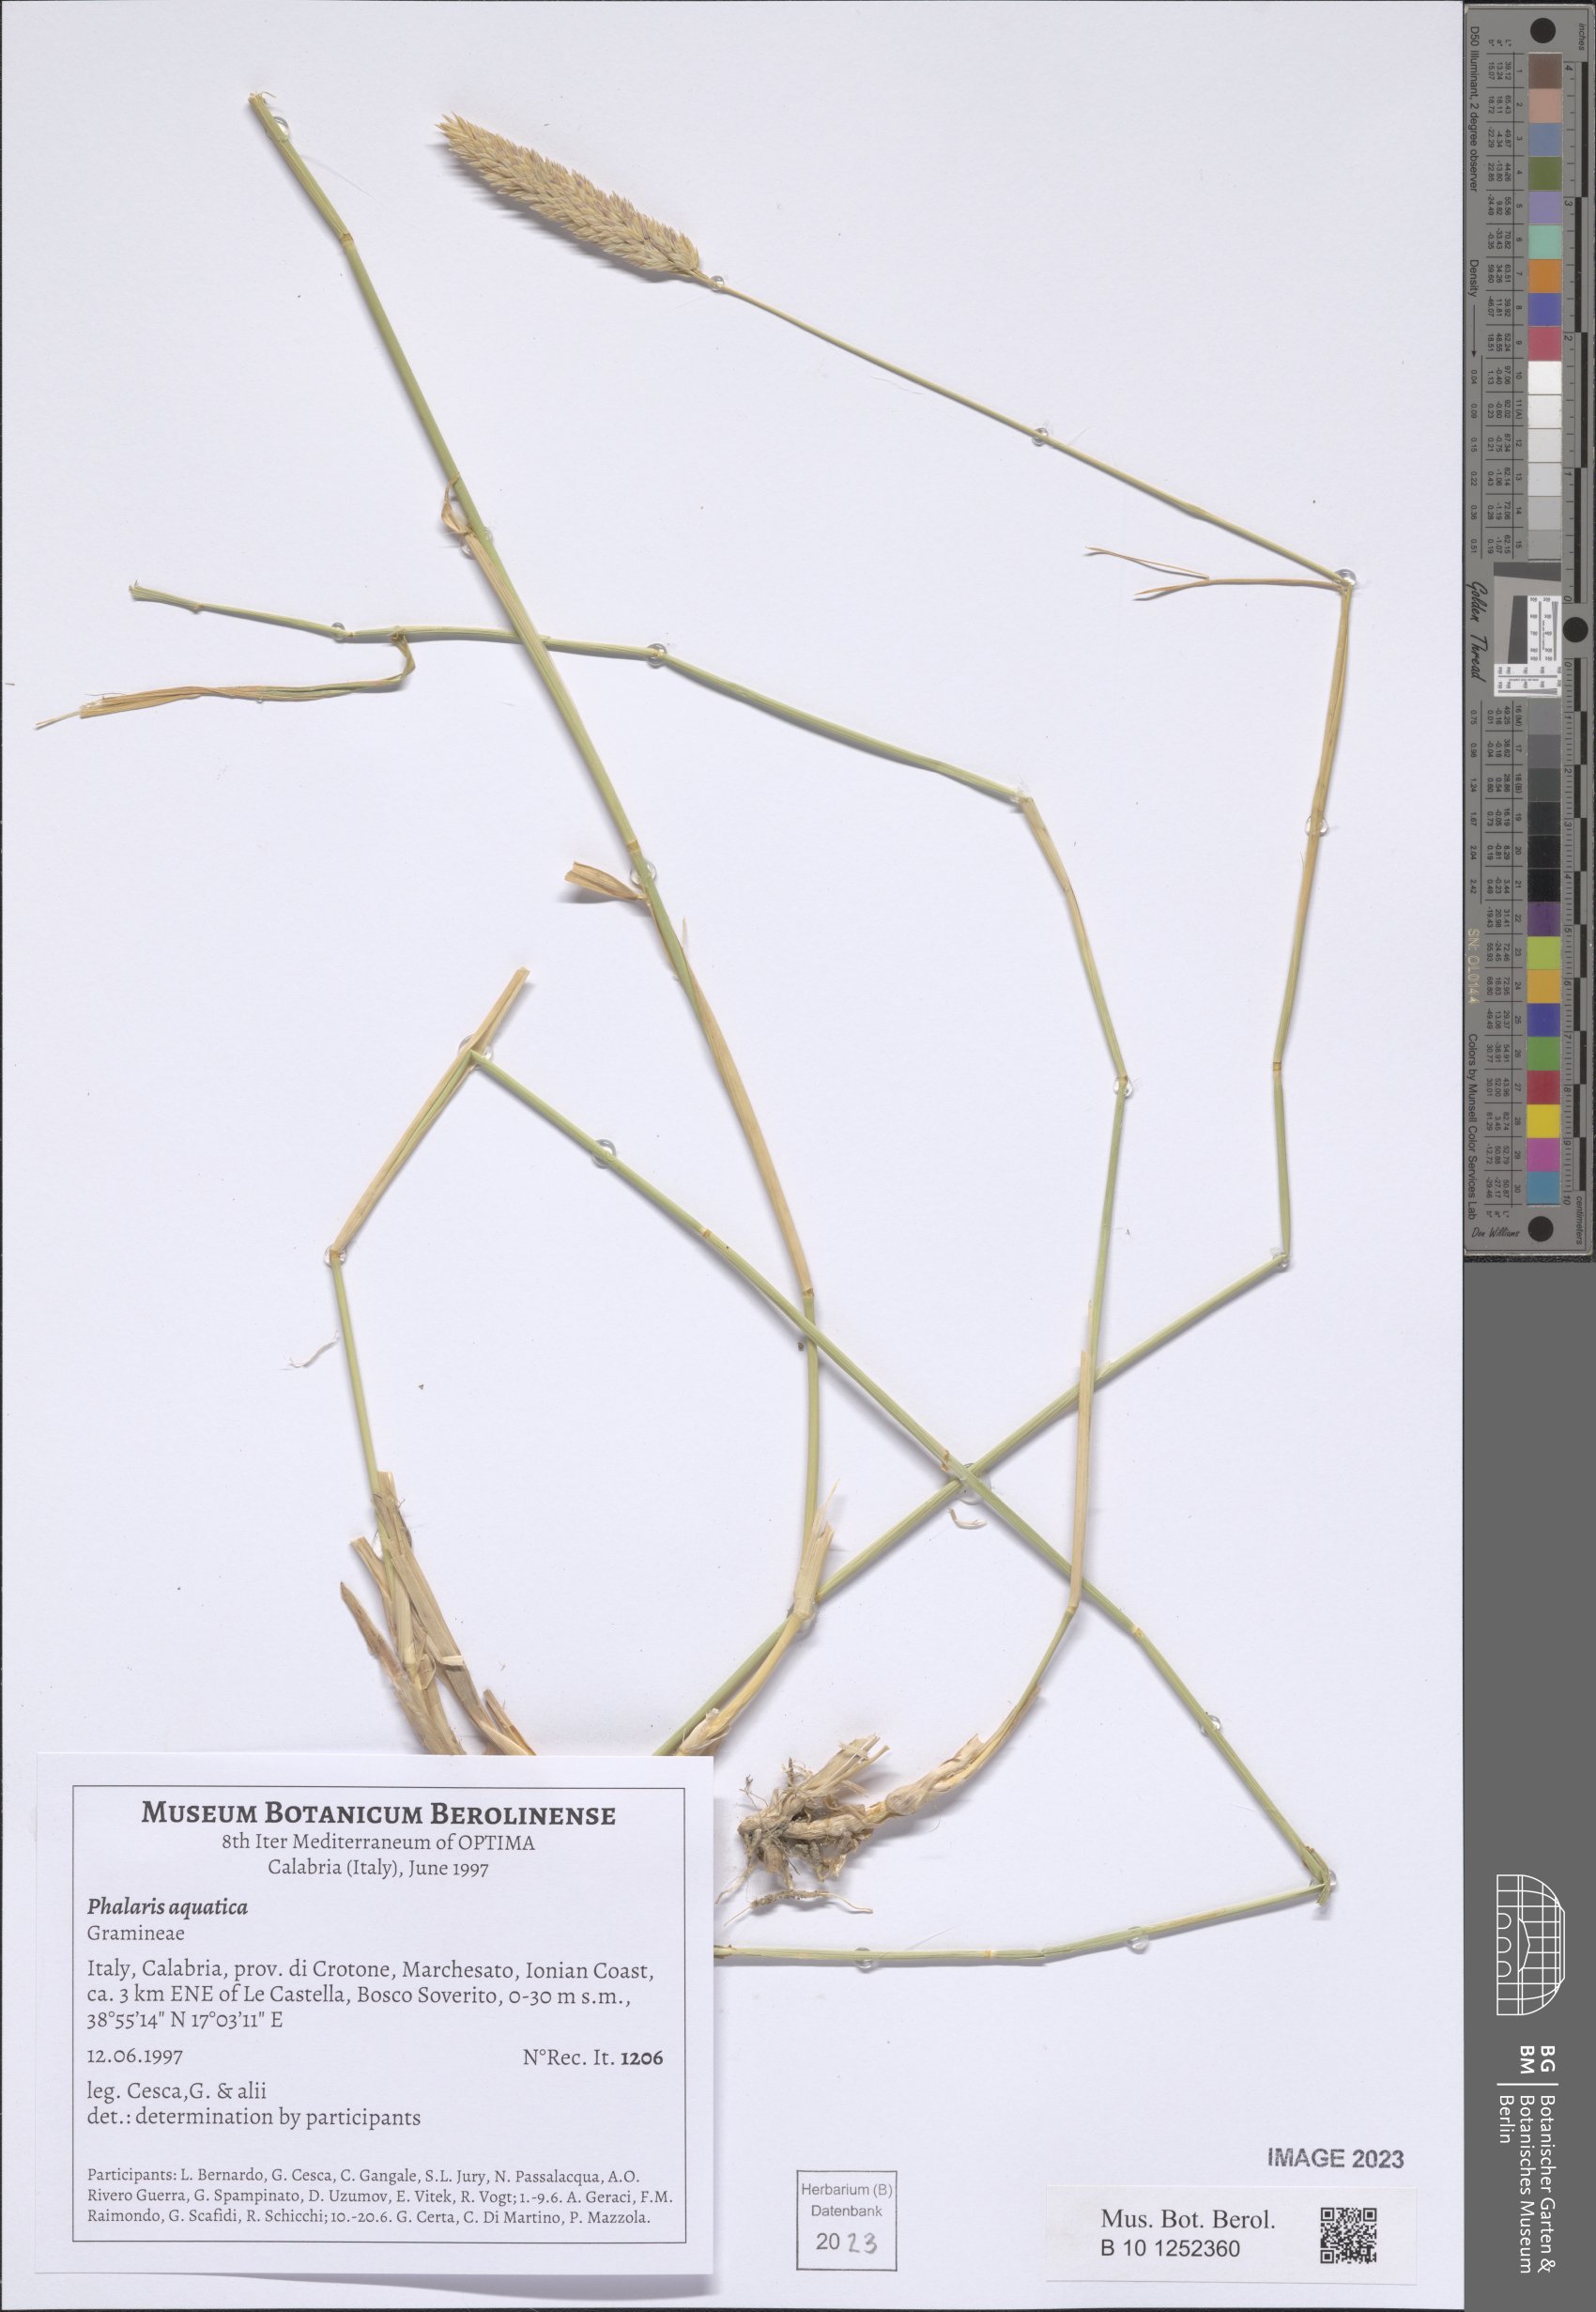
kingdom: Plantae
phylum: Tracheophyta
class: Liliopsida
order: Poales
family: Poaceae
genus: Phalaris
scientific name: Phalaris aquatica
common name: Bulbous canary-grass
